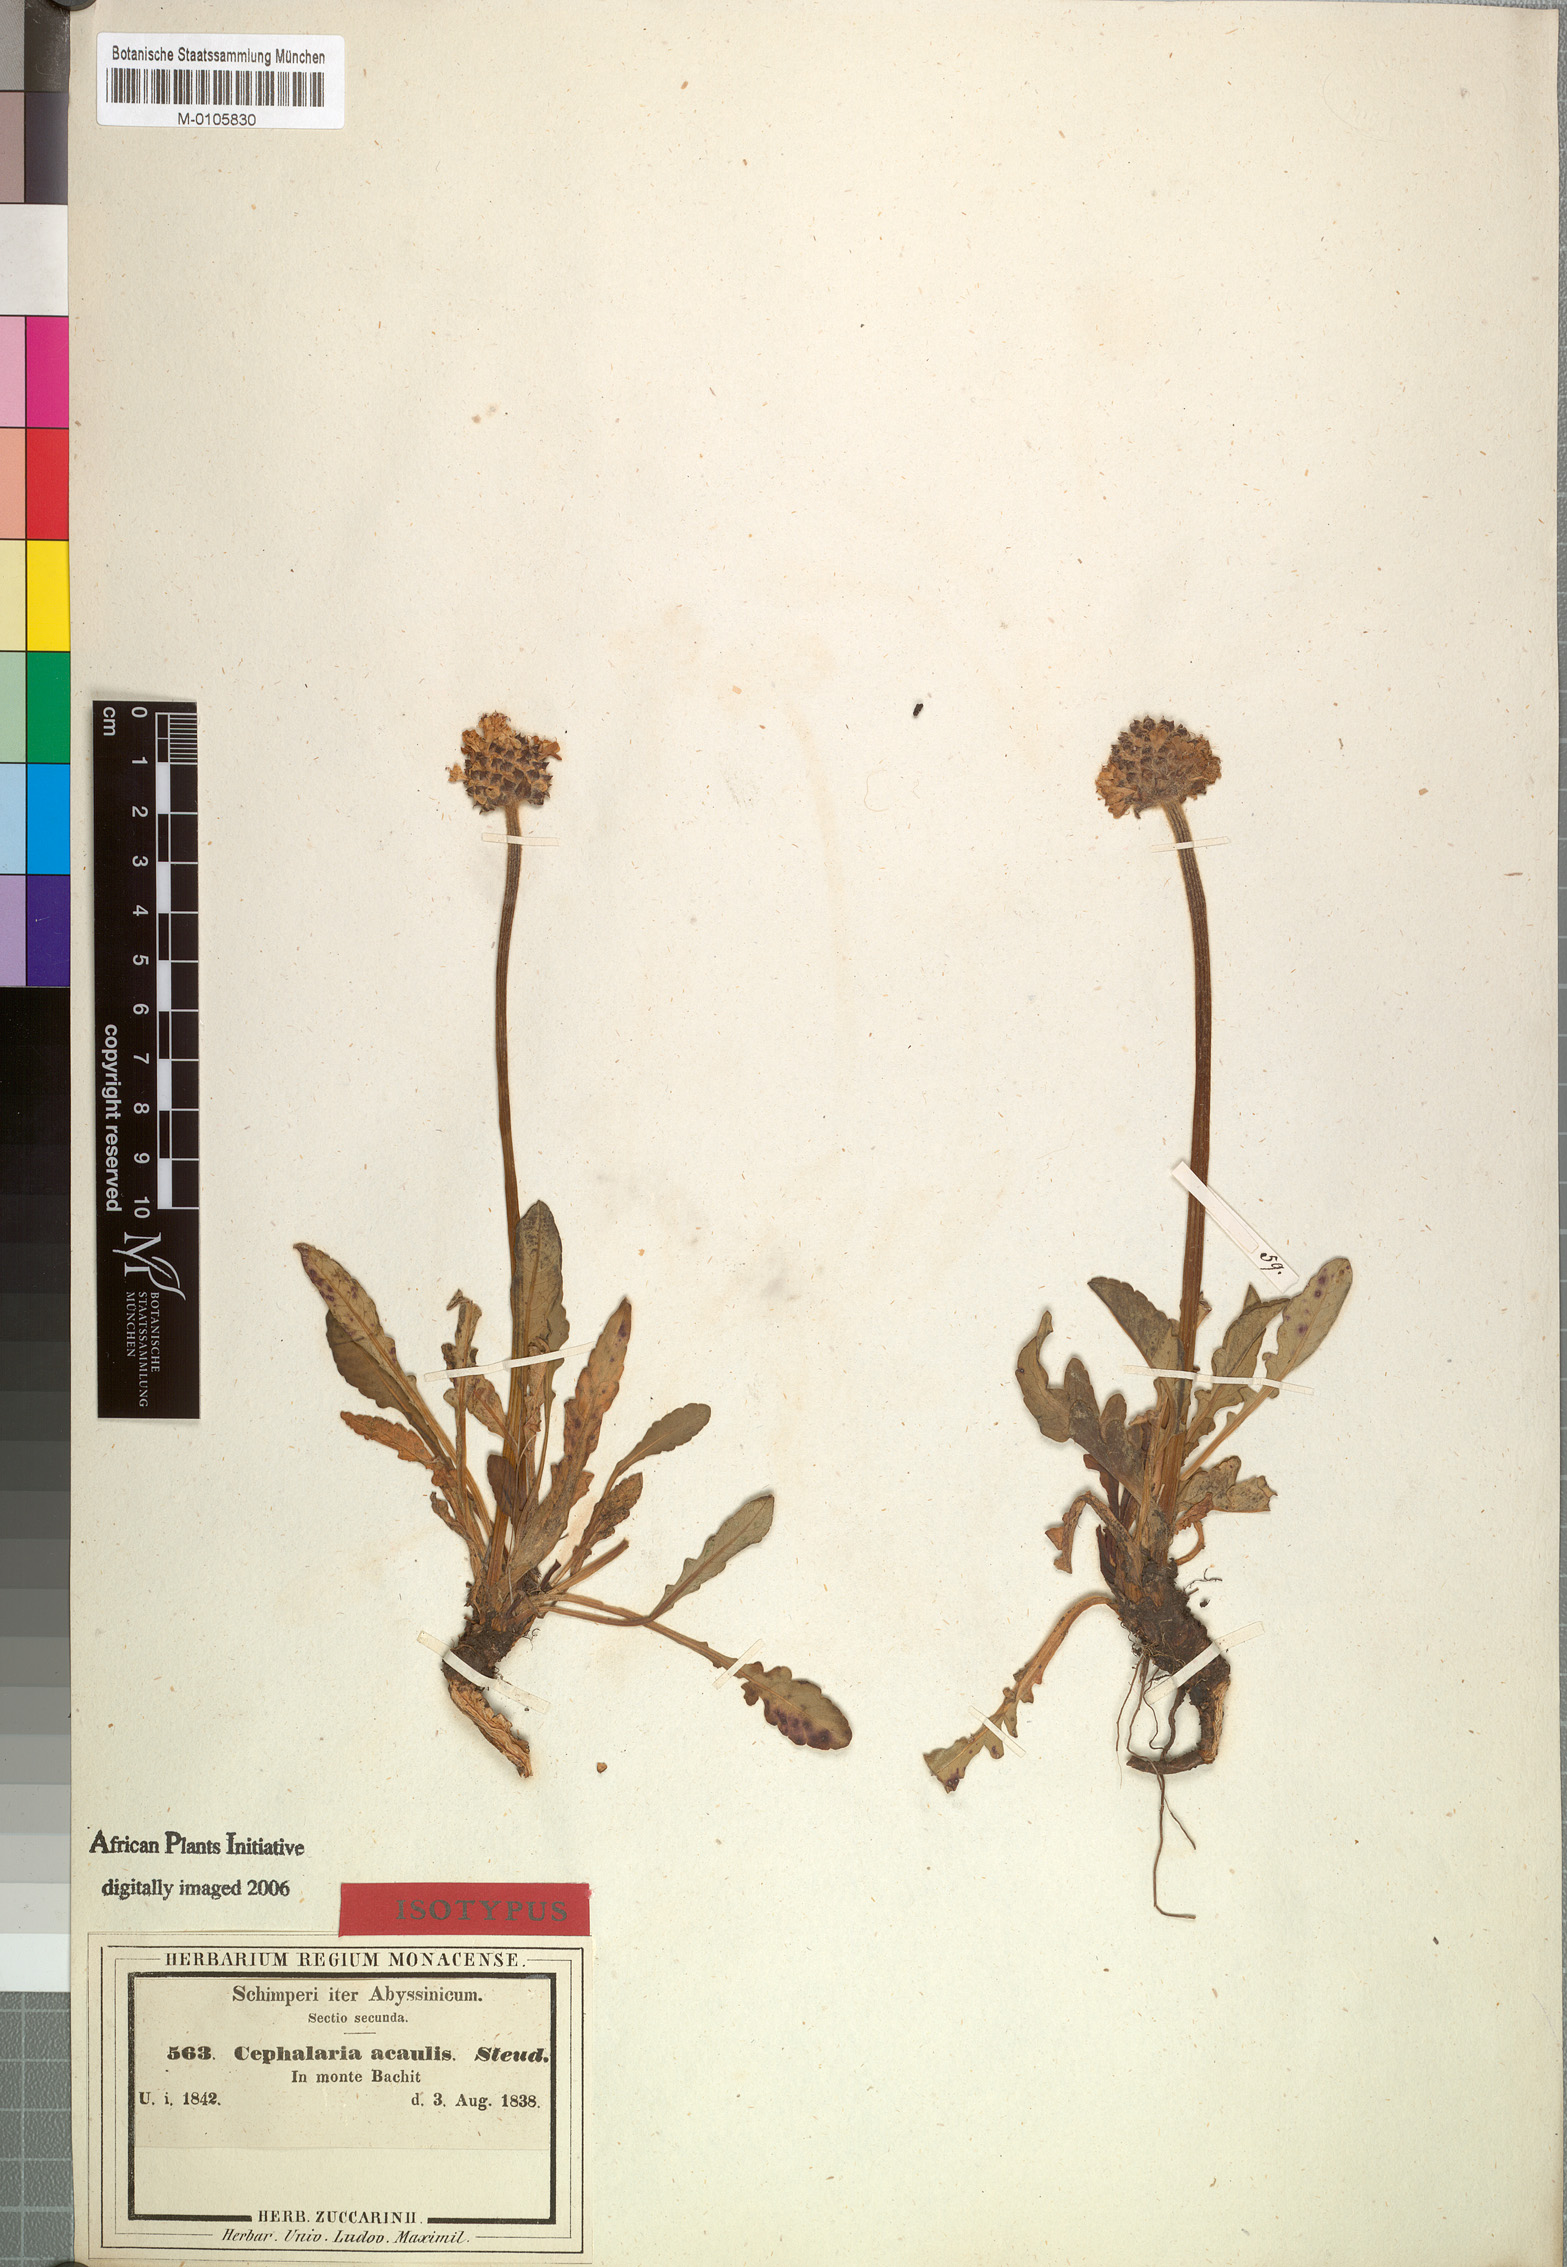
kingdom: Plantae
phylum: Tracheophyta
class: Magnoliopsida
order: Dipsacales
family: Caprifoliaceae
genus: Dipsacus
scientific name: Dipsacus pinnatifidus
